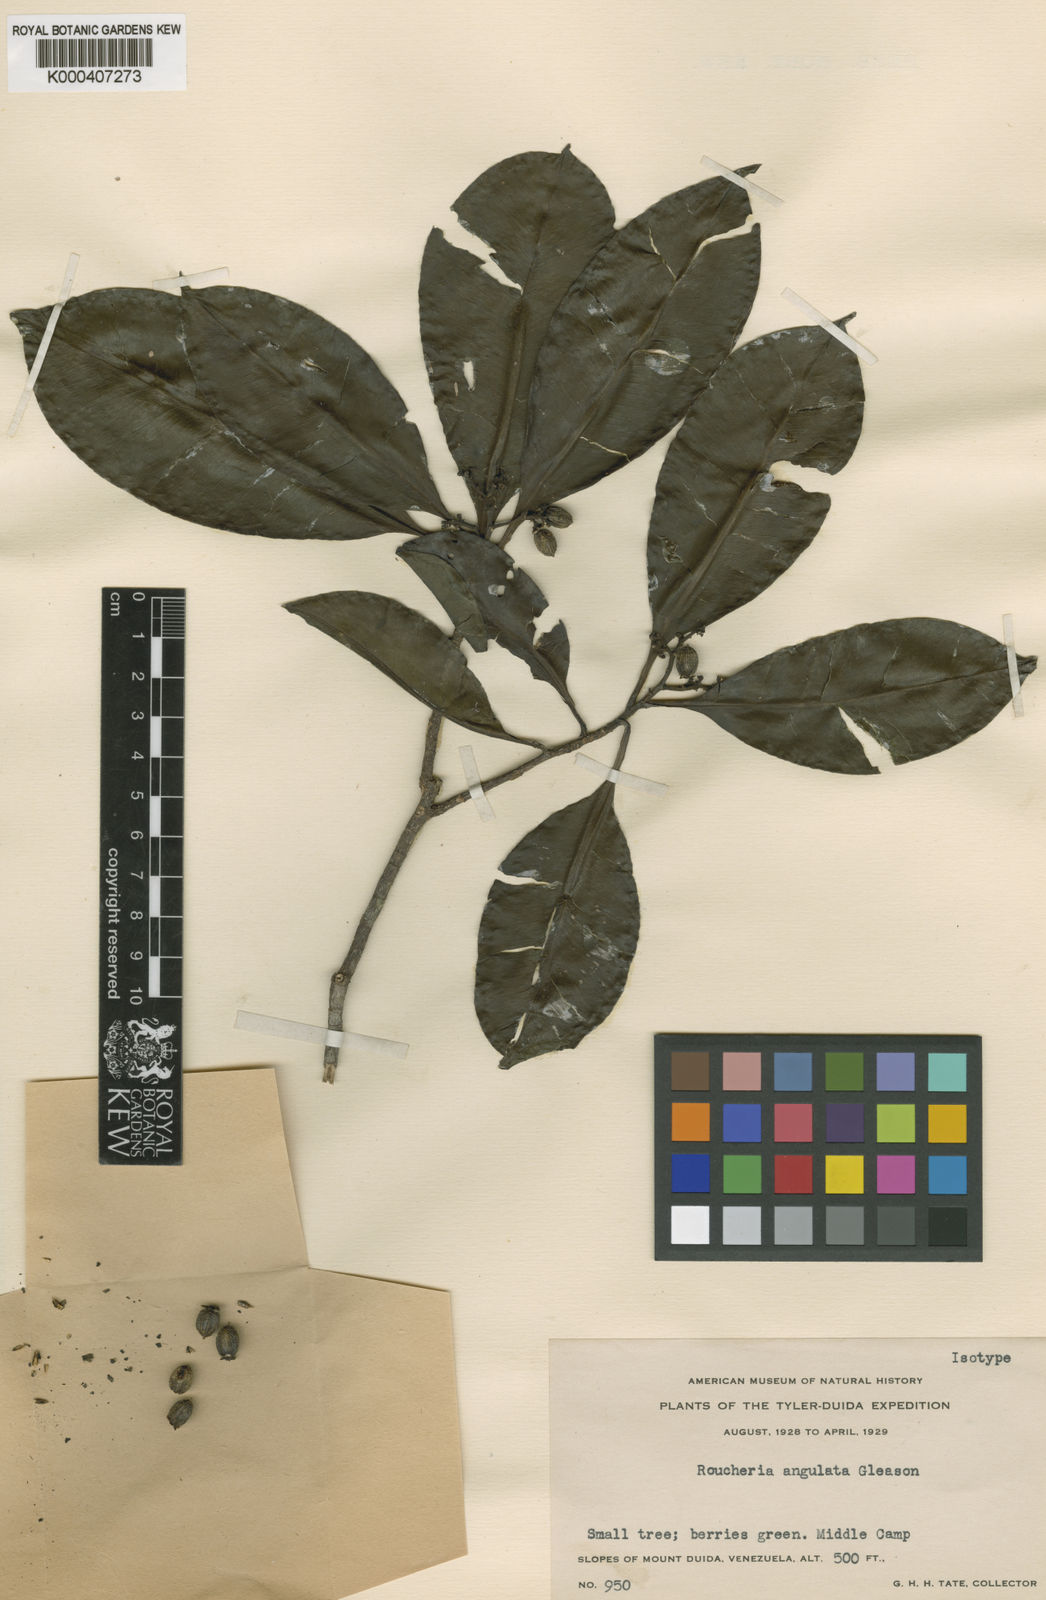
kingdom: Plantae
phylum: Tracheophyta
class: Magnoliopsida
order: Malpighiales
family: Linaceae
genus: Hebepetalum
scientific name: Hebepetalum humiriifolium
